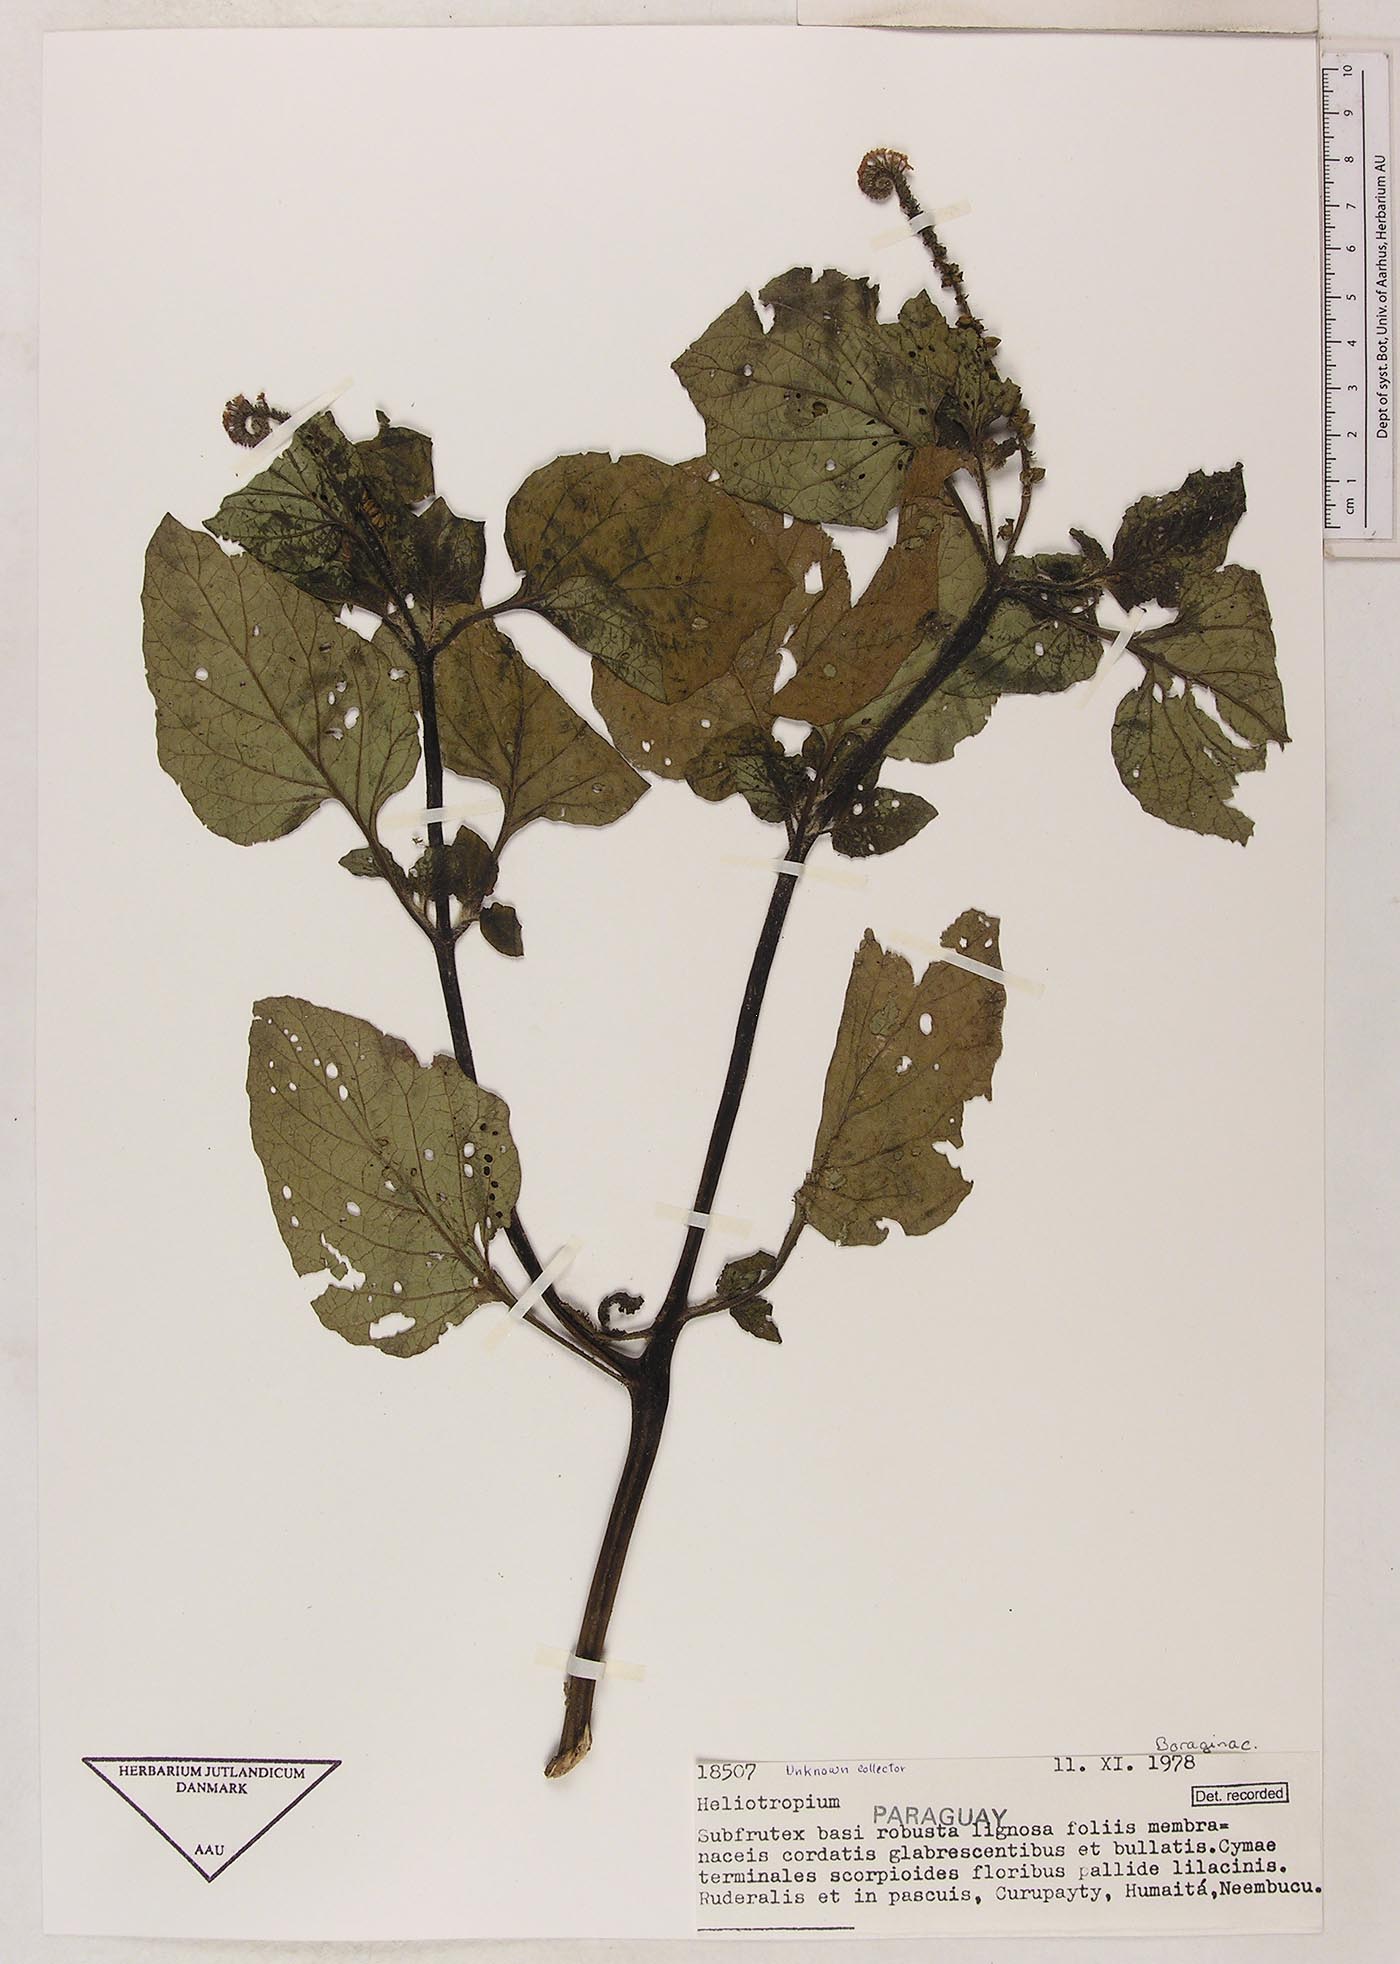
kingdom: Plantae
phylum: Tracheophyta
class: Magnoliopsida
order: Boraginales
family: Heliotropiaceae
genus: Heliotropium
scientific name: Heliotropium elongatum
